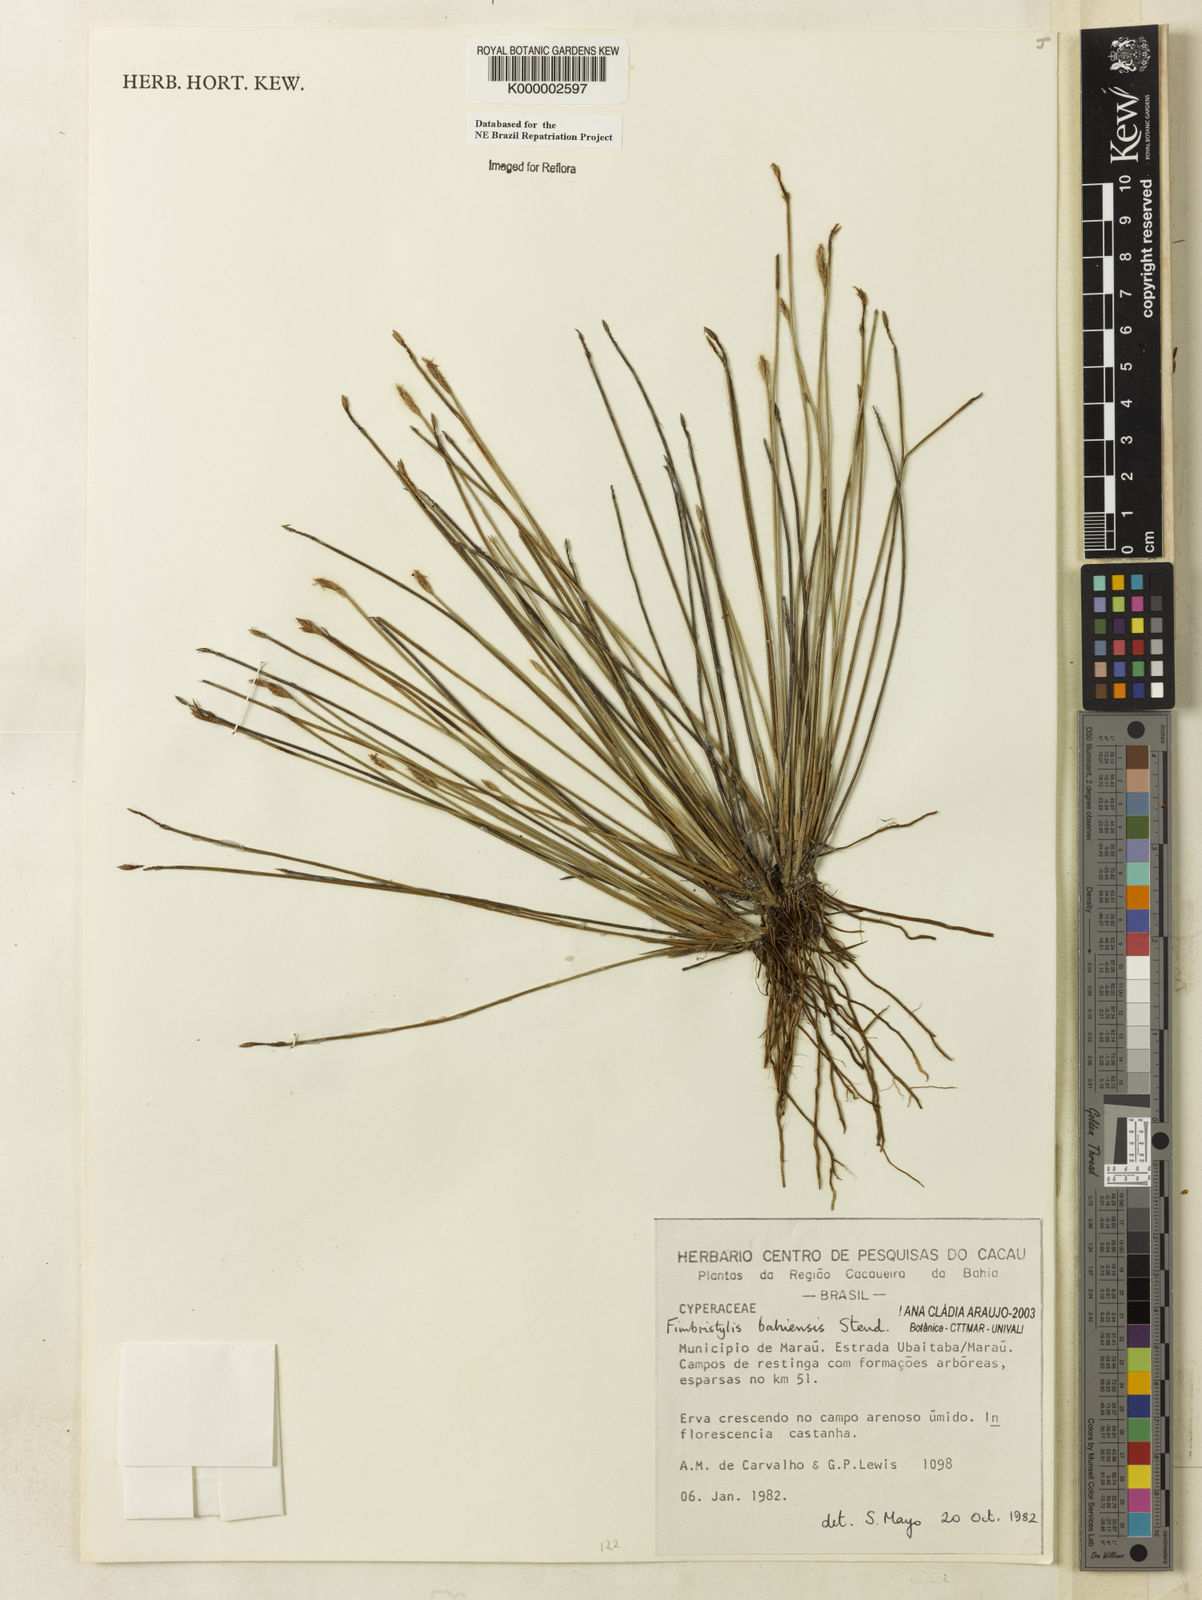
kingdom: Plantae
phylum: Tracheophyta
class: Liliopsida
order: Poales
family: Cyperaceae
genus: Fimbristylis
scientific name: Fimbristylis bahiensis
